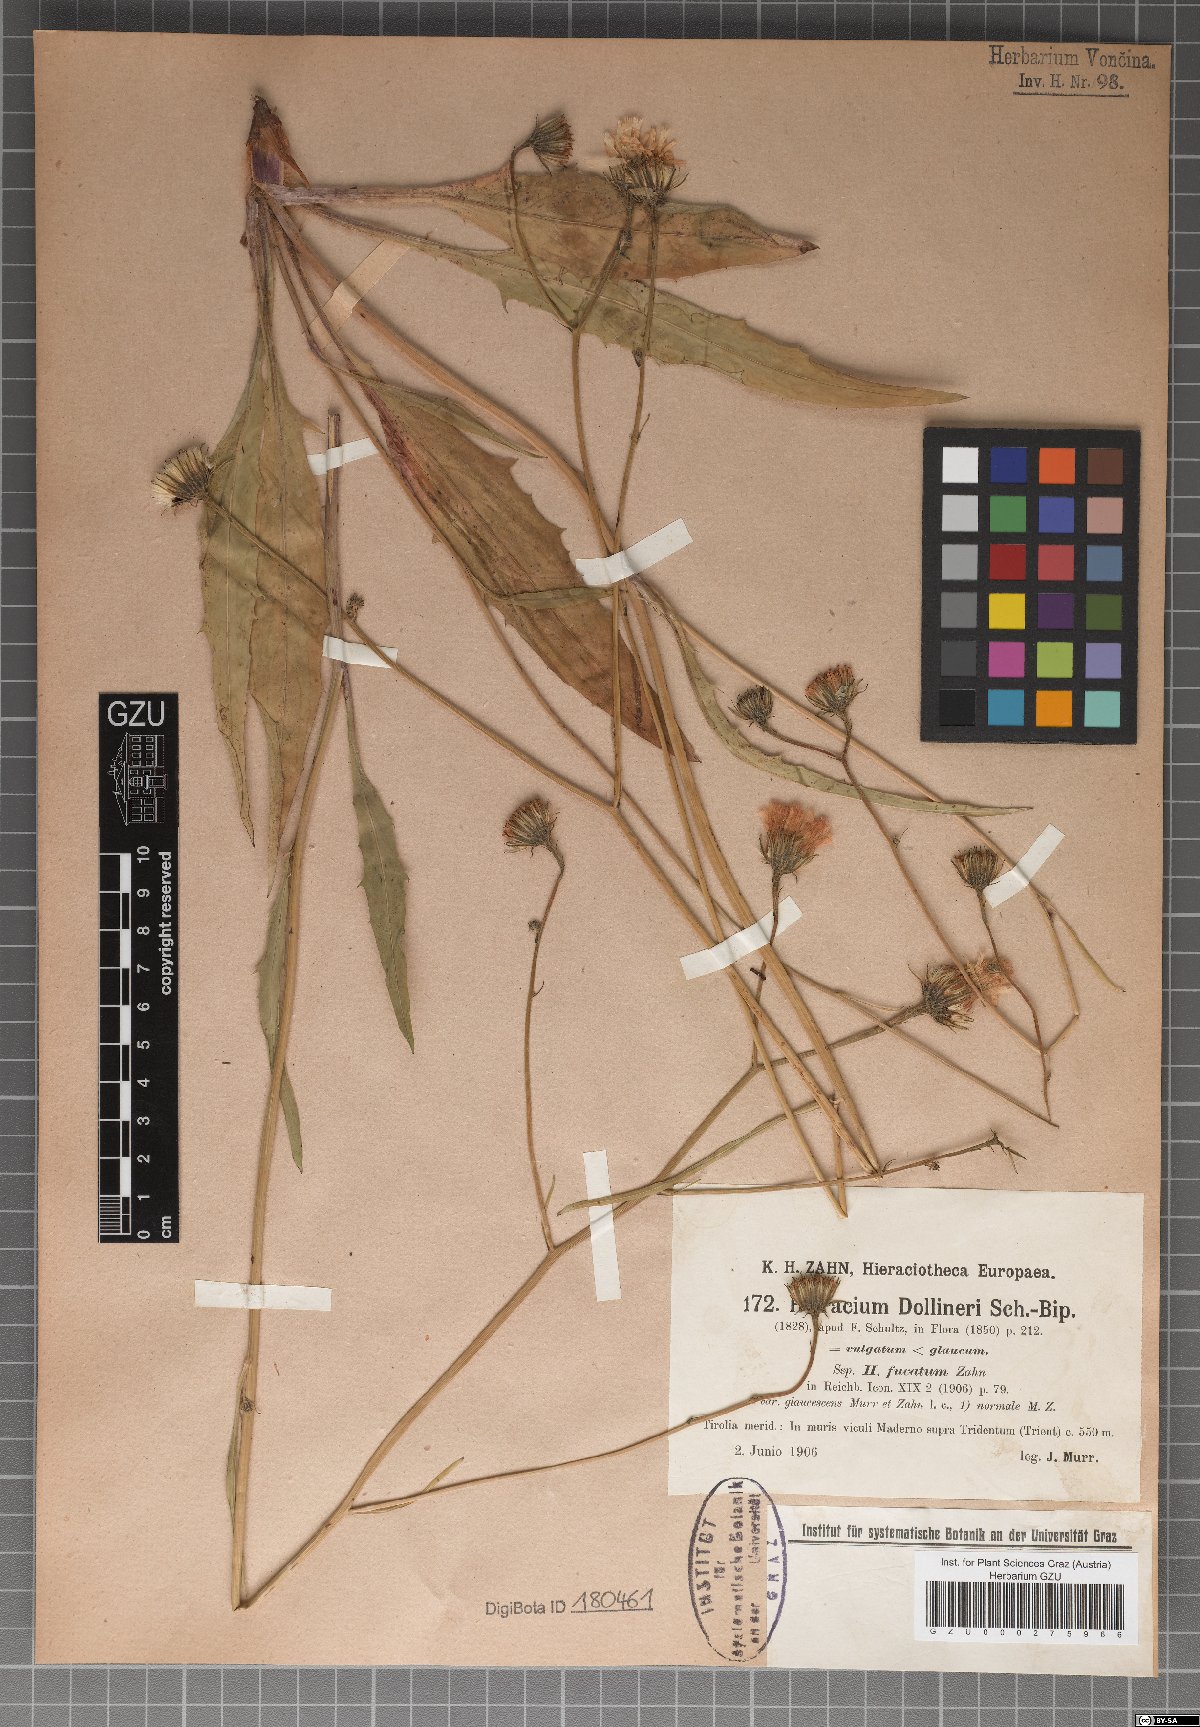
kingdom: Plantae
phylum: Tracheophyta
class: Magnoliopsida
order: Asterales
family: Asteraceae
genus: Hieracium
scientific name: Hieracium dollineri
